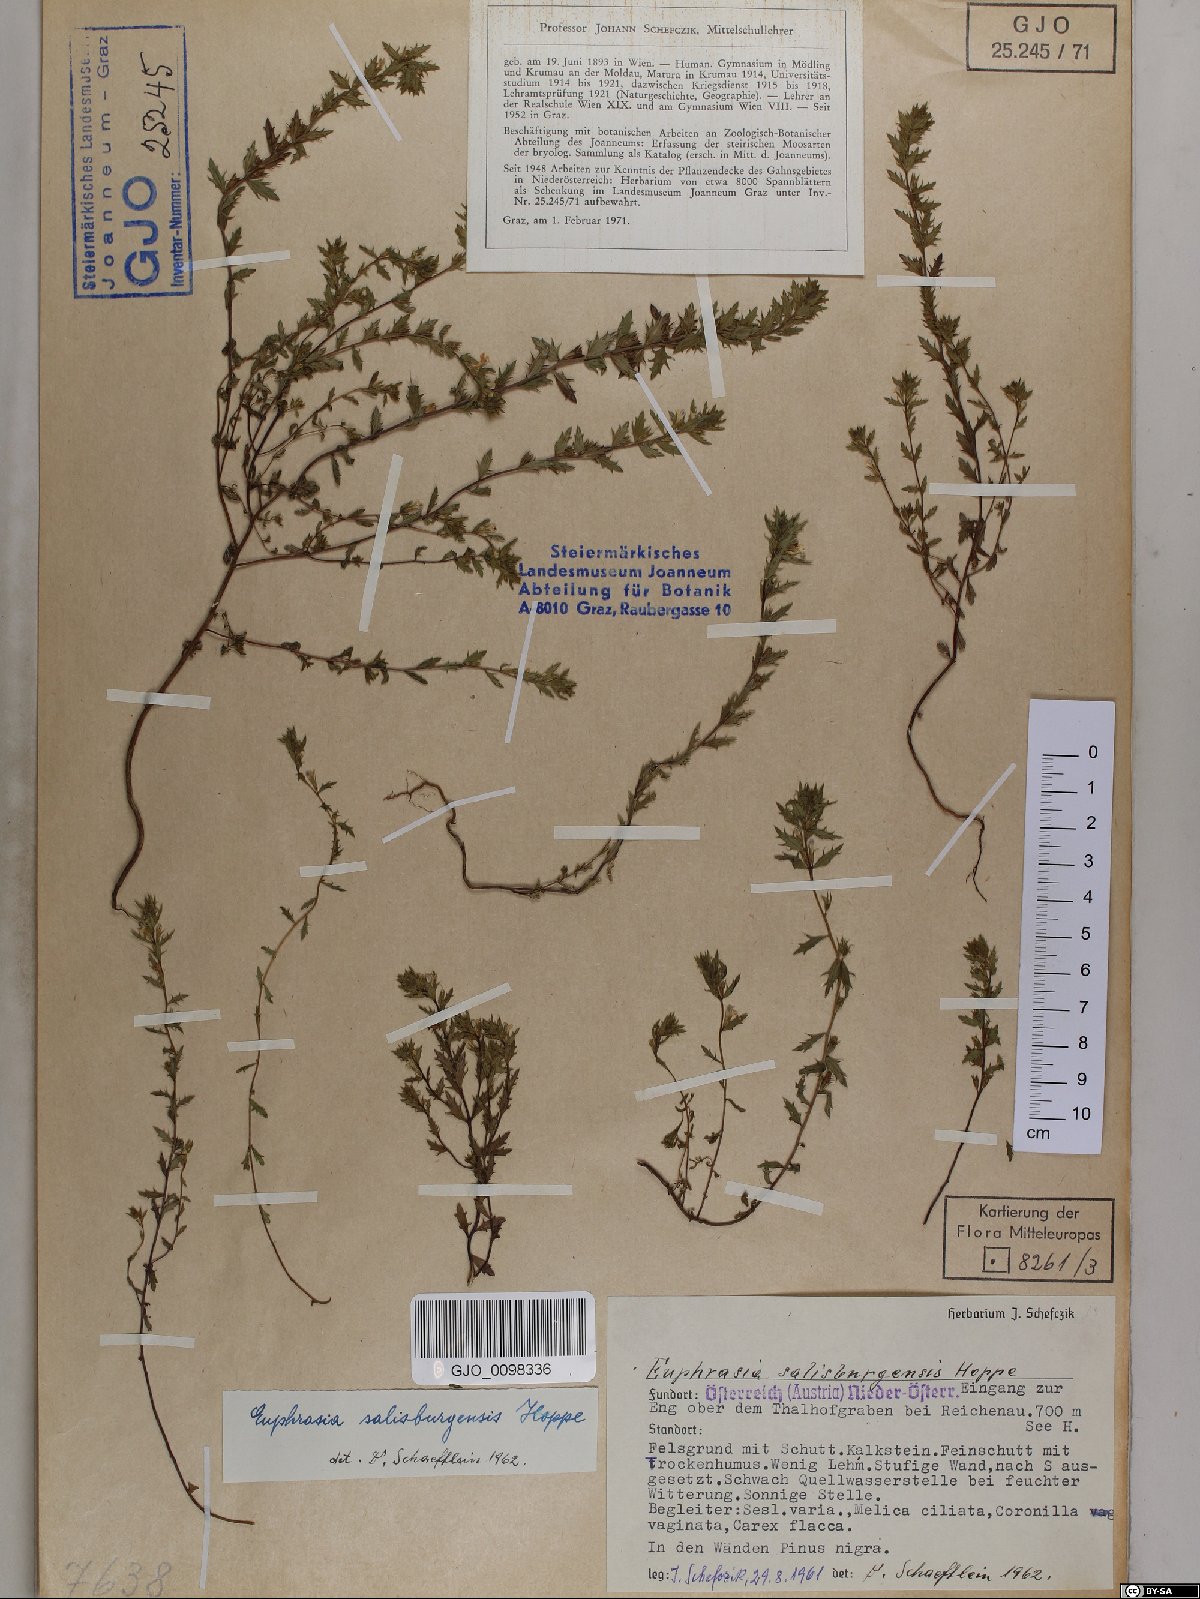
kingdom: Plantae
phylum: Tracheophyta
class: Magnoliopsida
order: Lamiales
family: Orobanchaceae
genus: Euphrasia
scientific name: Euphrasia salisburgensis
